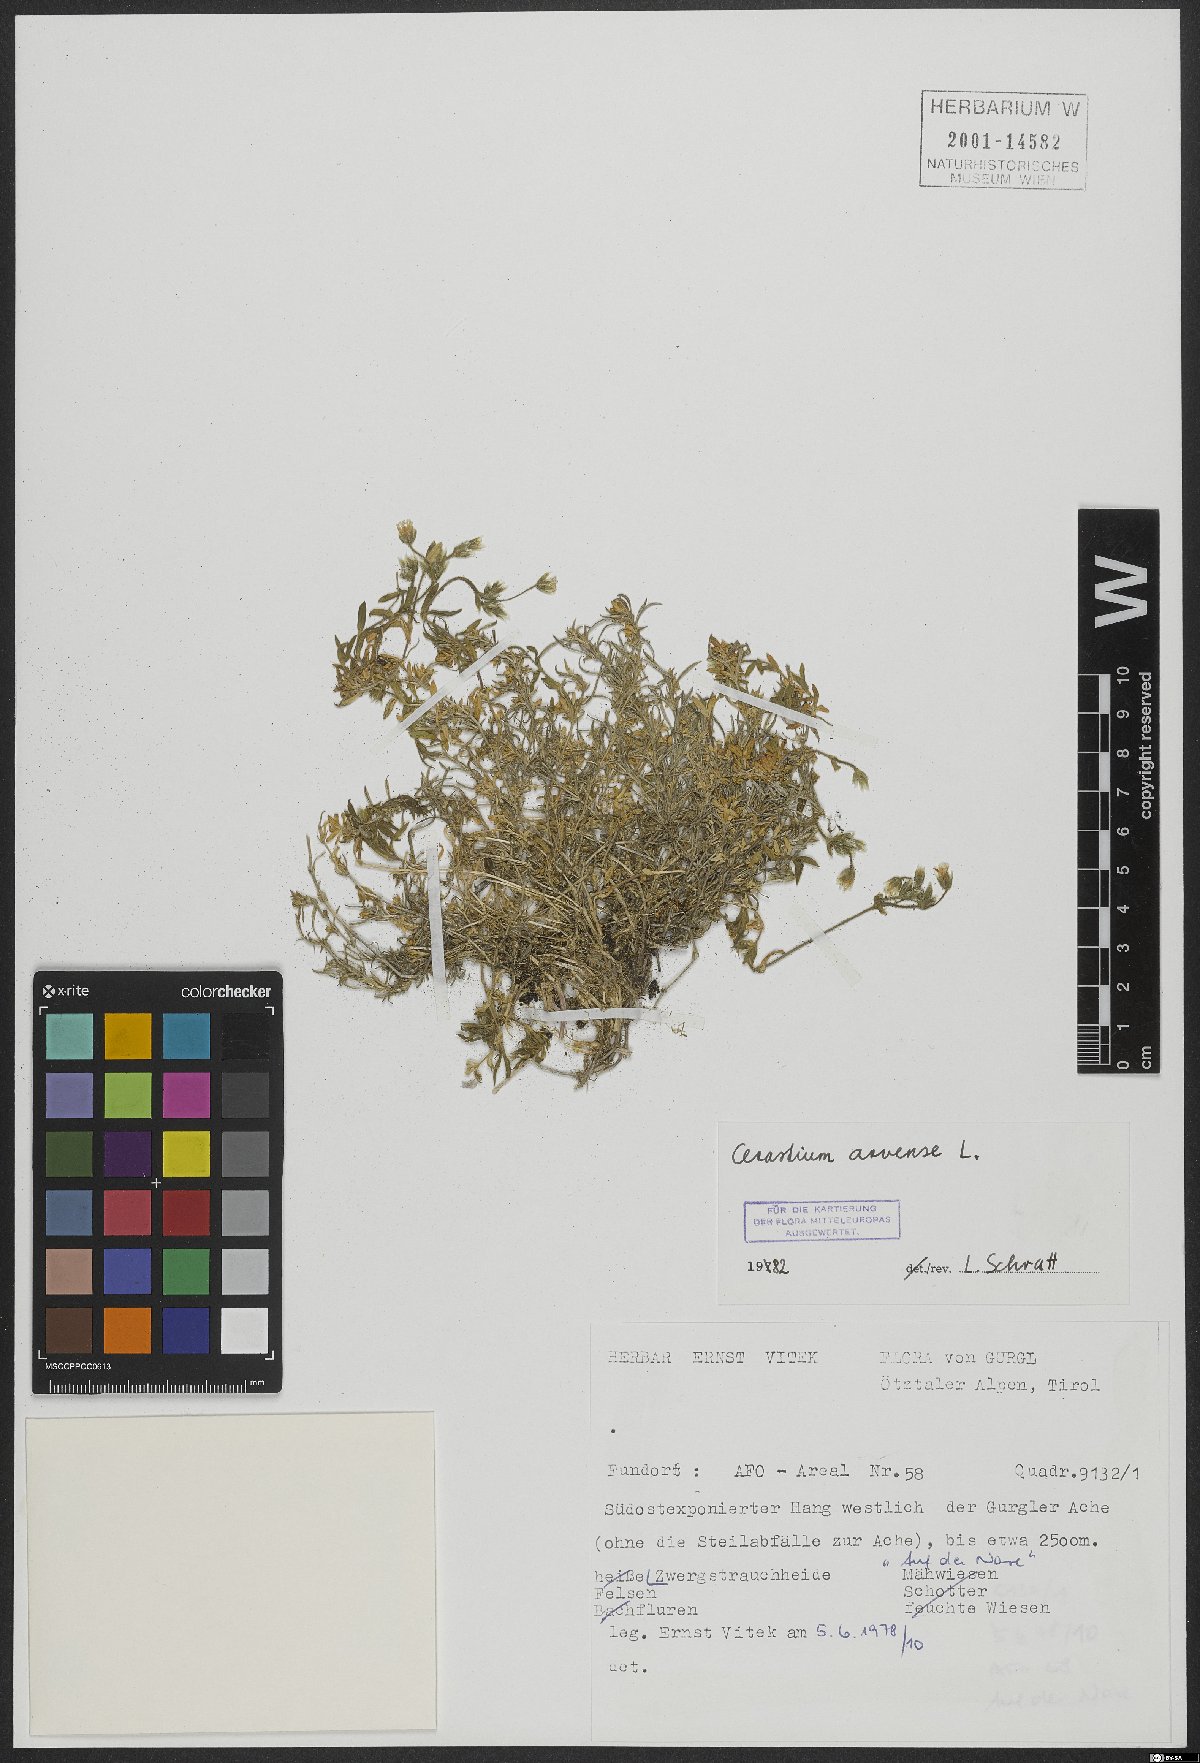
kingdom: Plantae
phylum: Tracheophyta
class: Magnoliopsida
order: Caryophyllales
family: Caryophyllaceae
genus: Cerastium
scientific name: Cerastium arvense
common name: Field mouse-ear
